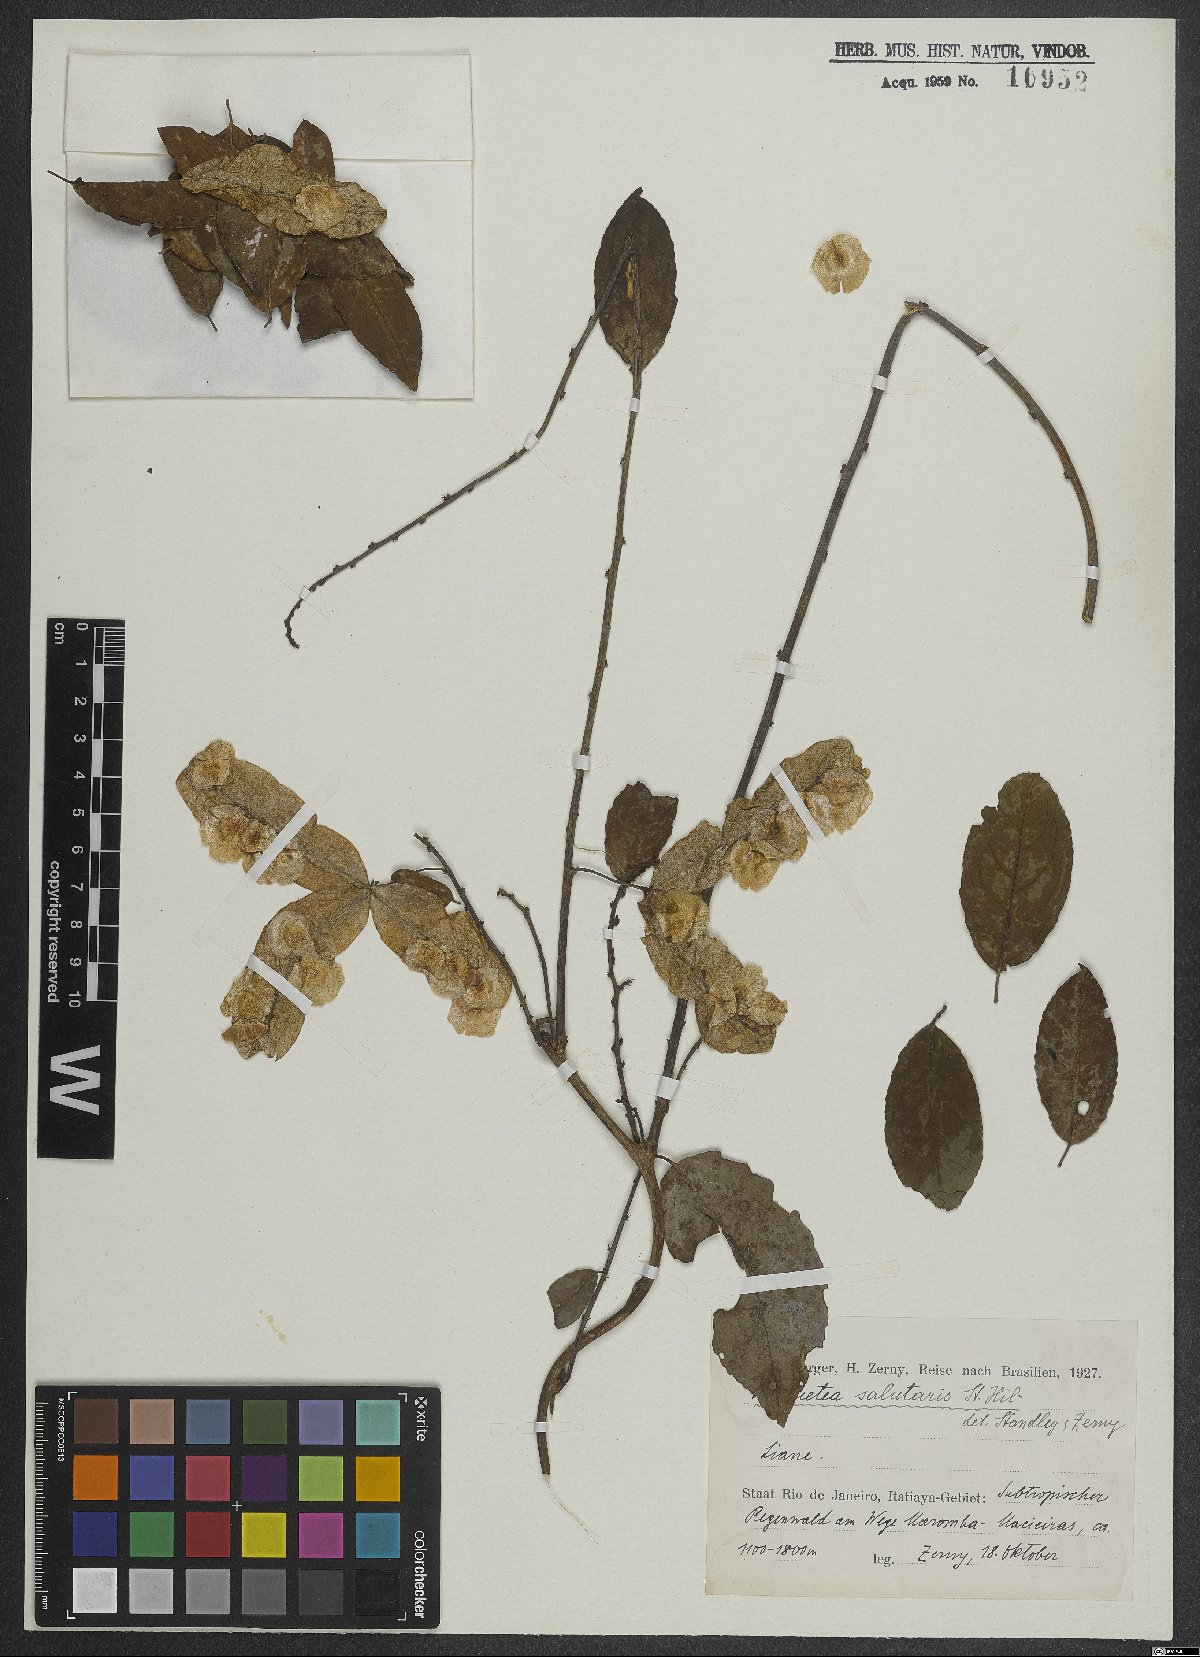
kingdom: Plantae
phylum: Tracheophyta
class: Magnoliopsida
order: Malpighiales
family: Violaceae
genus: Anchietea
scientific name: Anchietea pyrifolia
